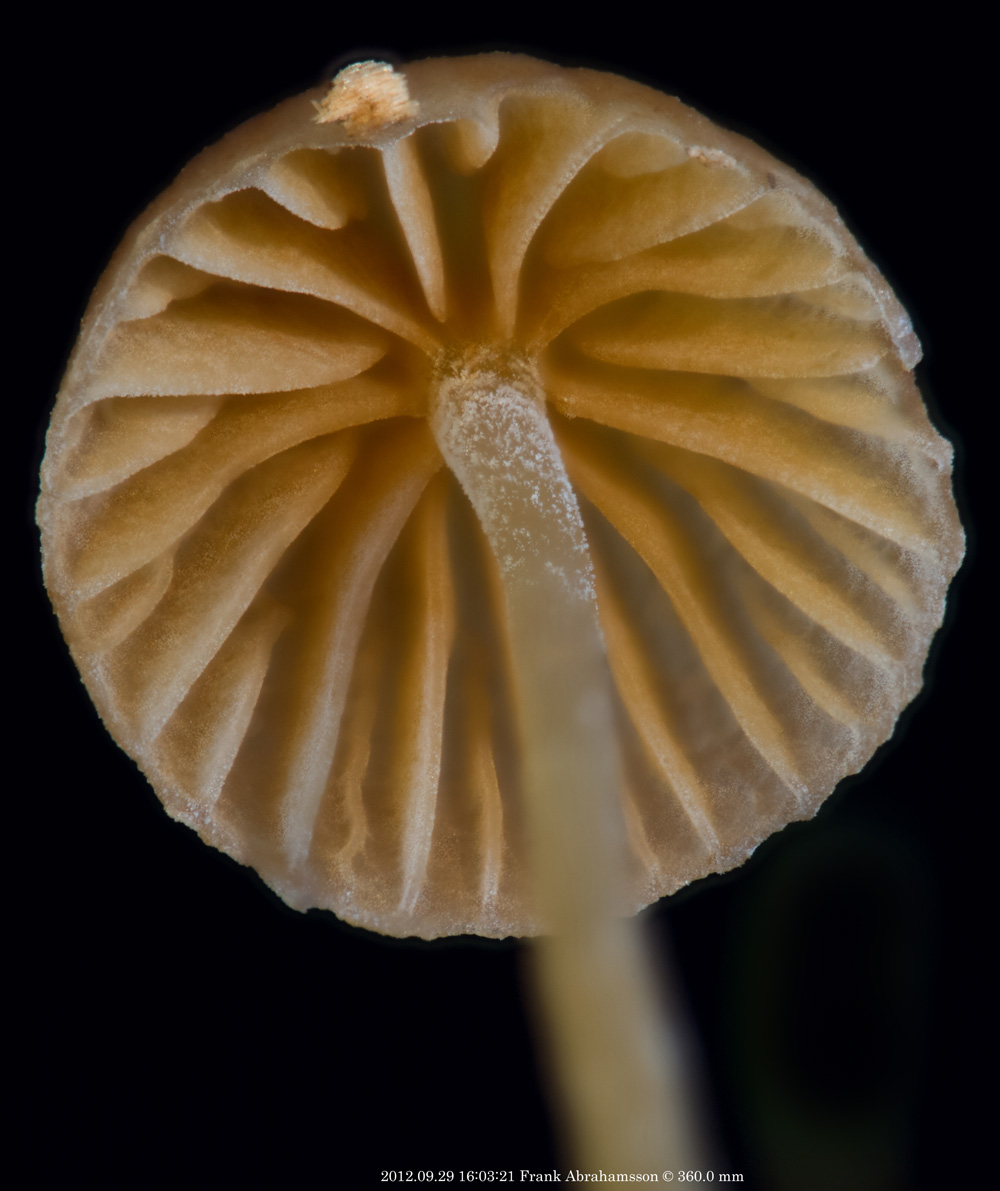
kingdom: Fungi
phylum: Basidiomycota
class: Agaricomycetes
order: Agaricales
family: Hymenogastraceae
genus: Galerina
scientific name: Galerina hypnorum
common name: mos-hjelmhat
